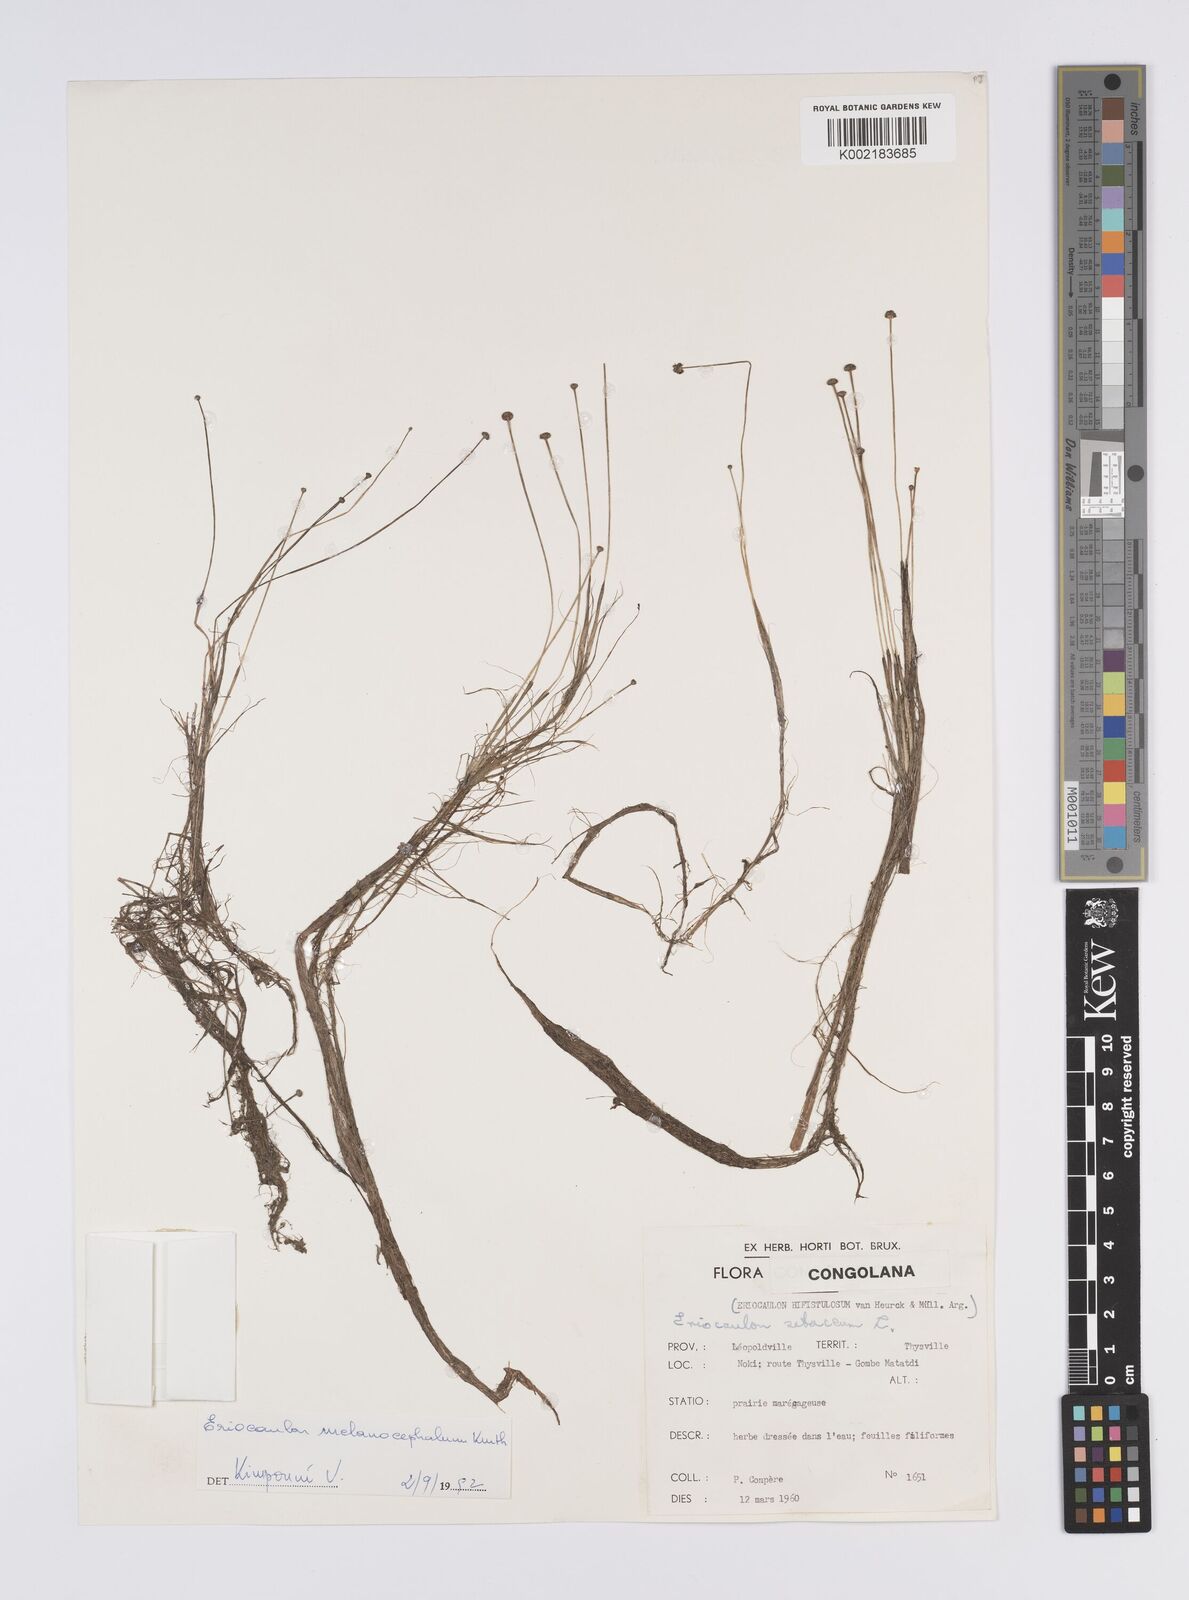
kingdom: Plantae
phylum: Tracheophyta
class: Liliopsida
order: Poales
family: Eriocaulaceae
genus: Eriocaulon
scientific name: Eriocaulon setaceum
